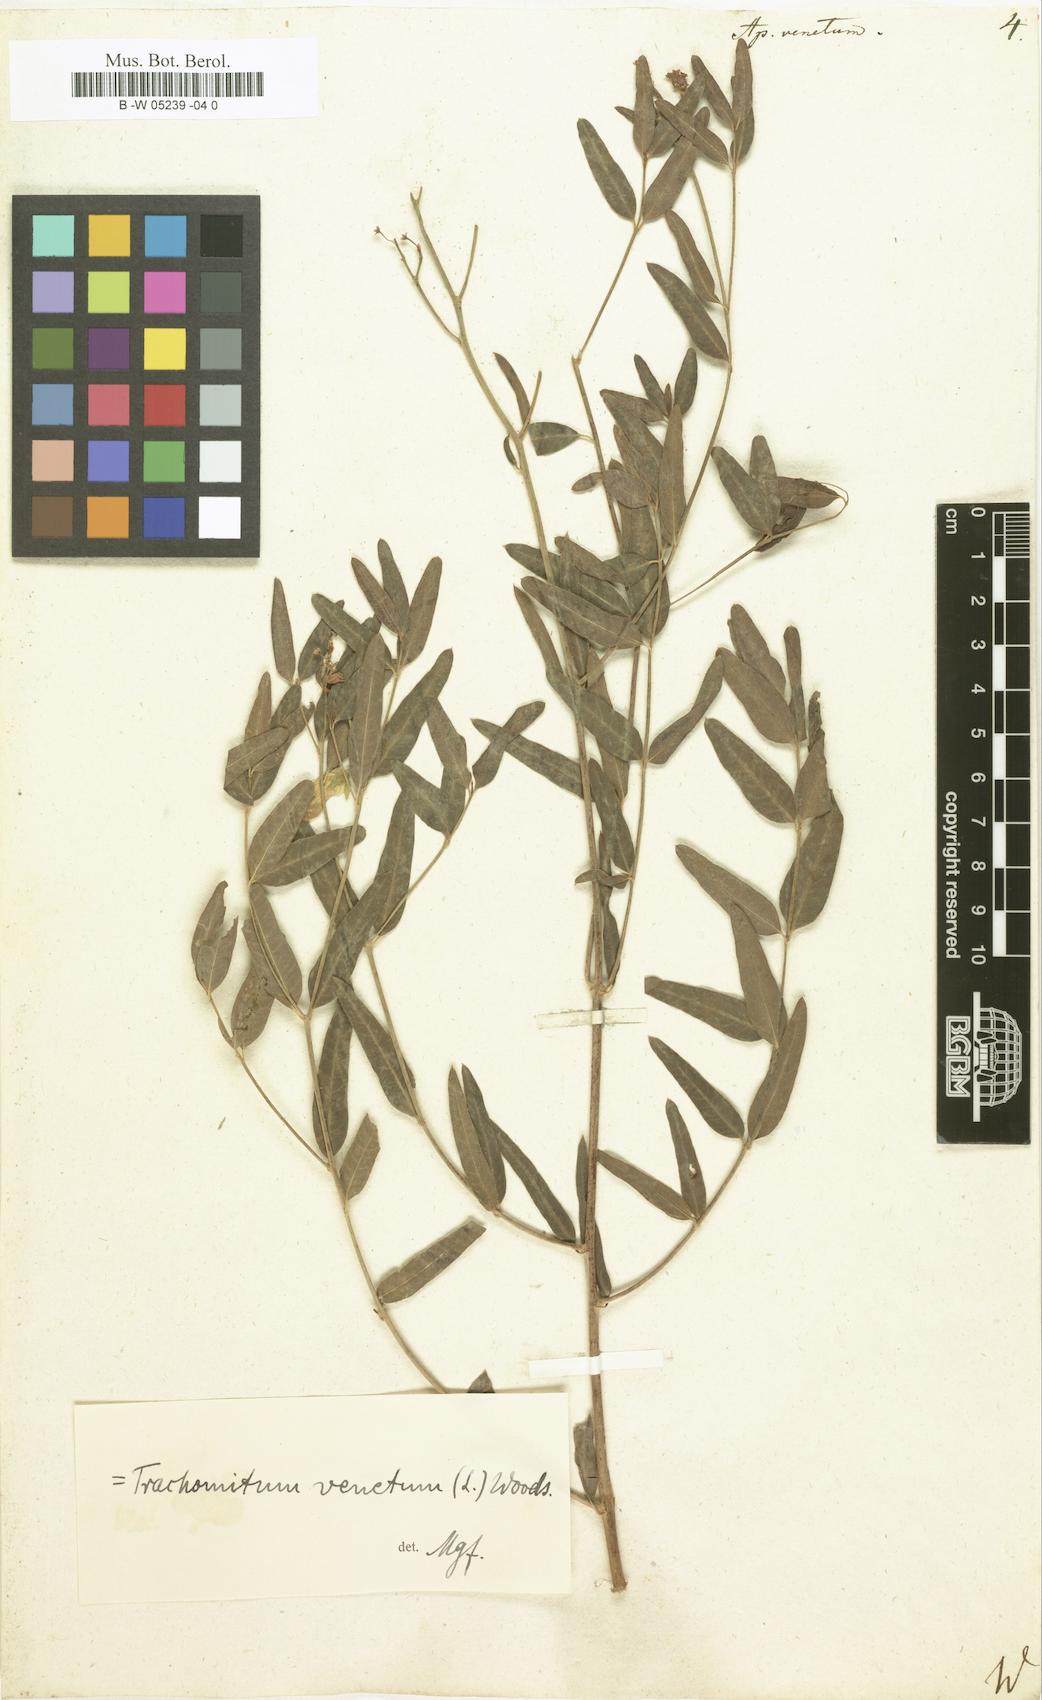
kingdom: Plantae
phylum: Tracheophyta
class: Magnoliopsida
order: Gentianales
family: Apocynaceae
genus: Poacynum
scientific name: Poacynum venetum
